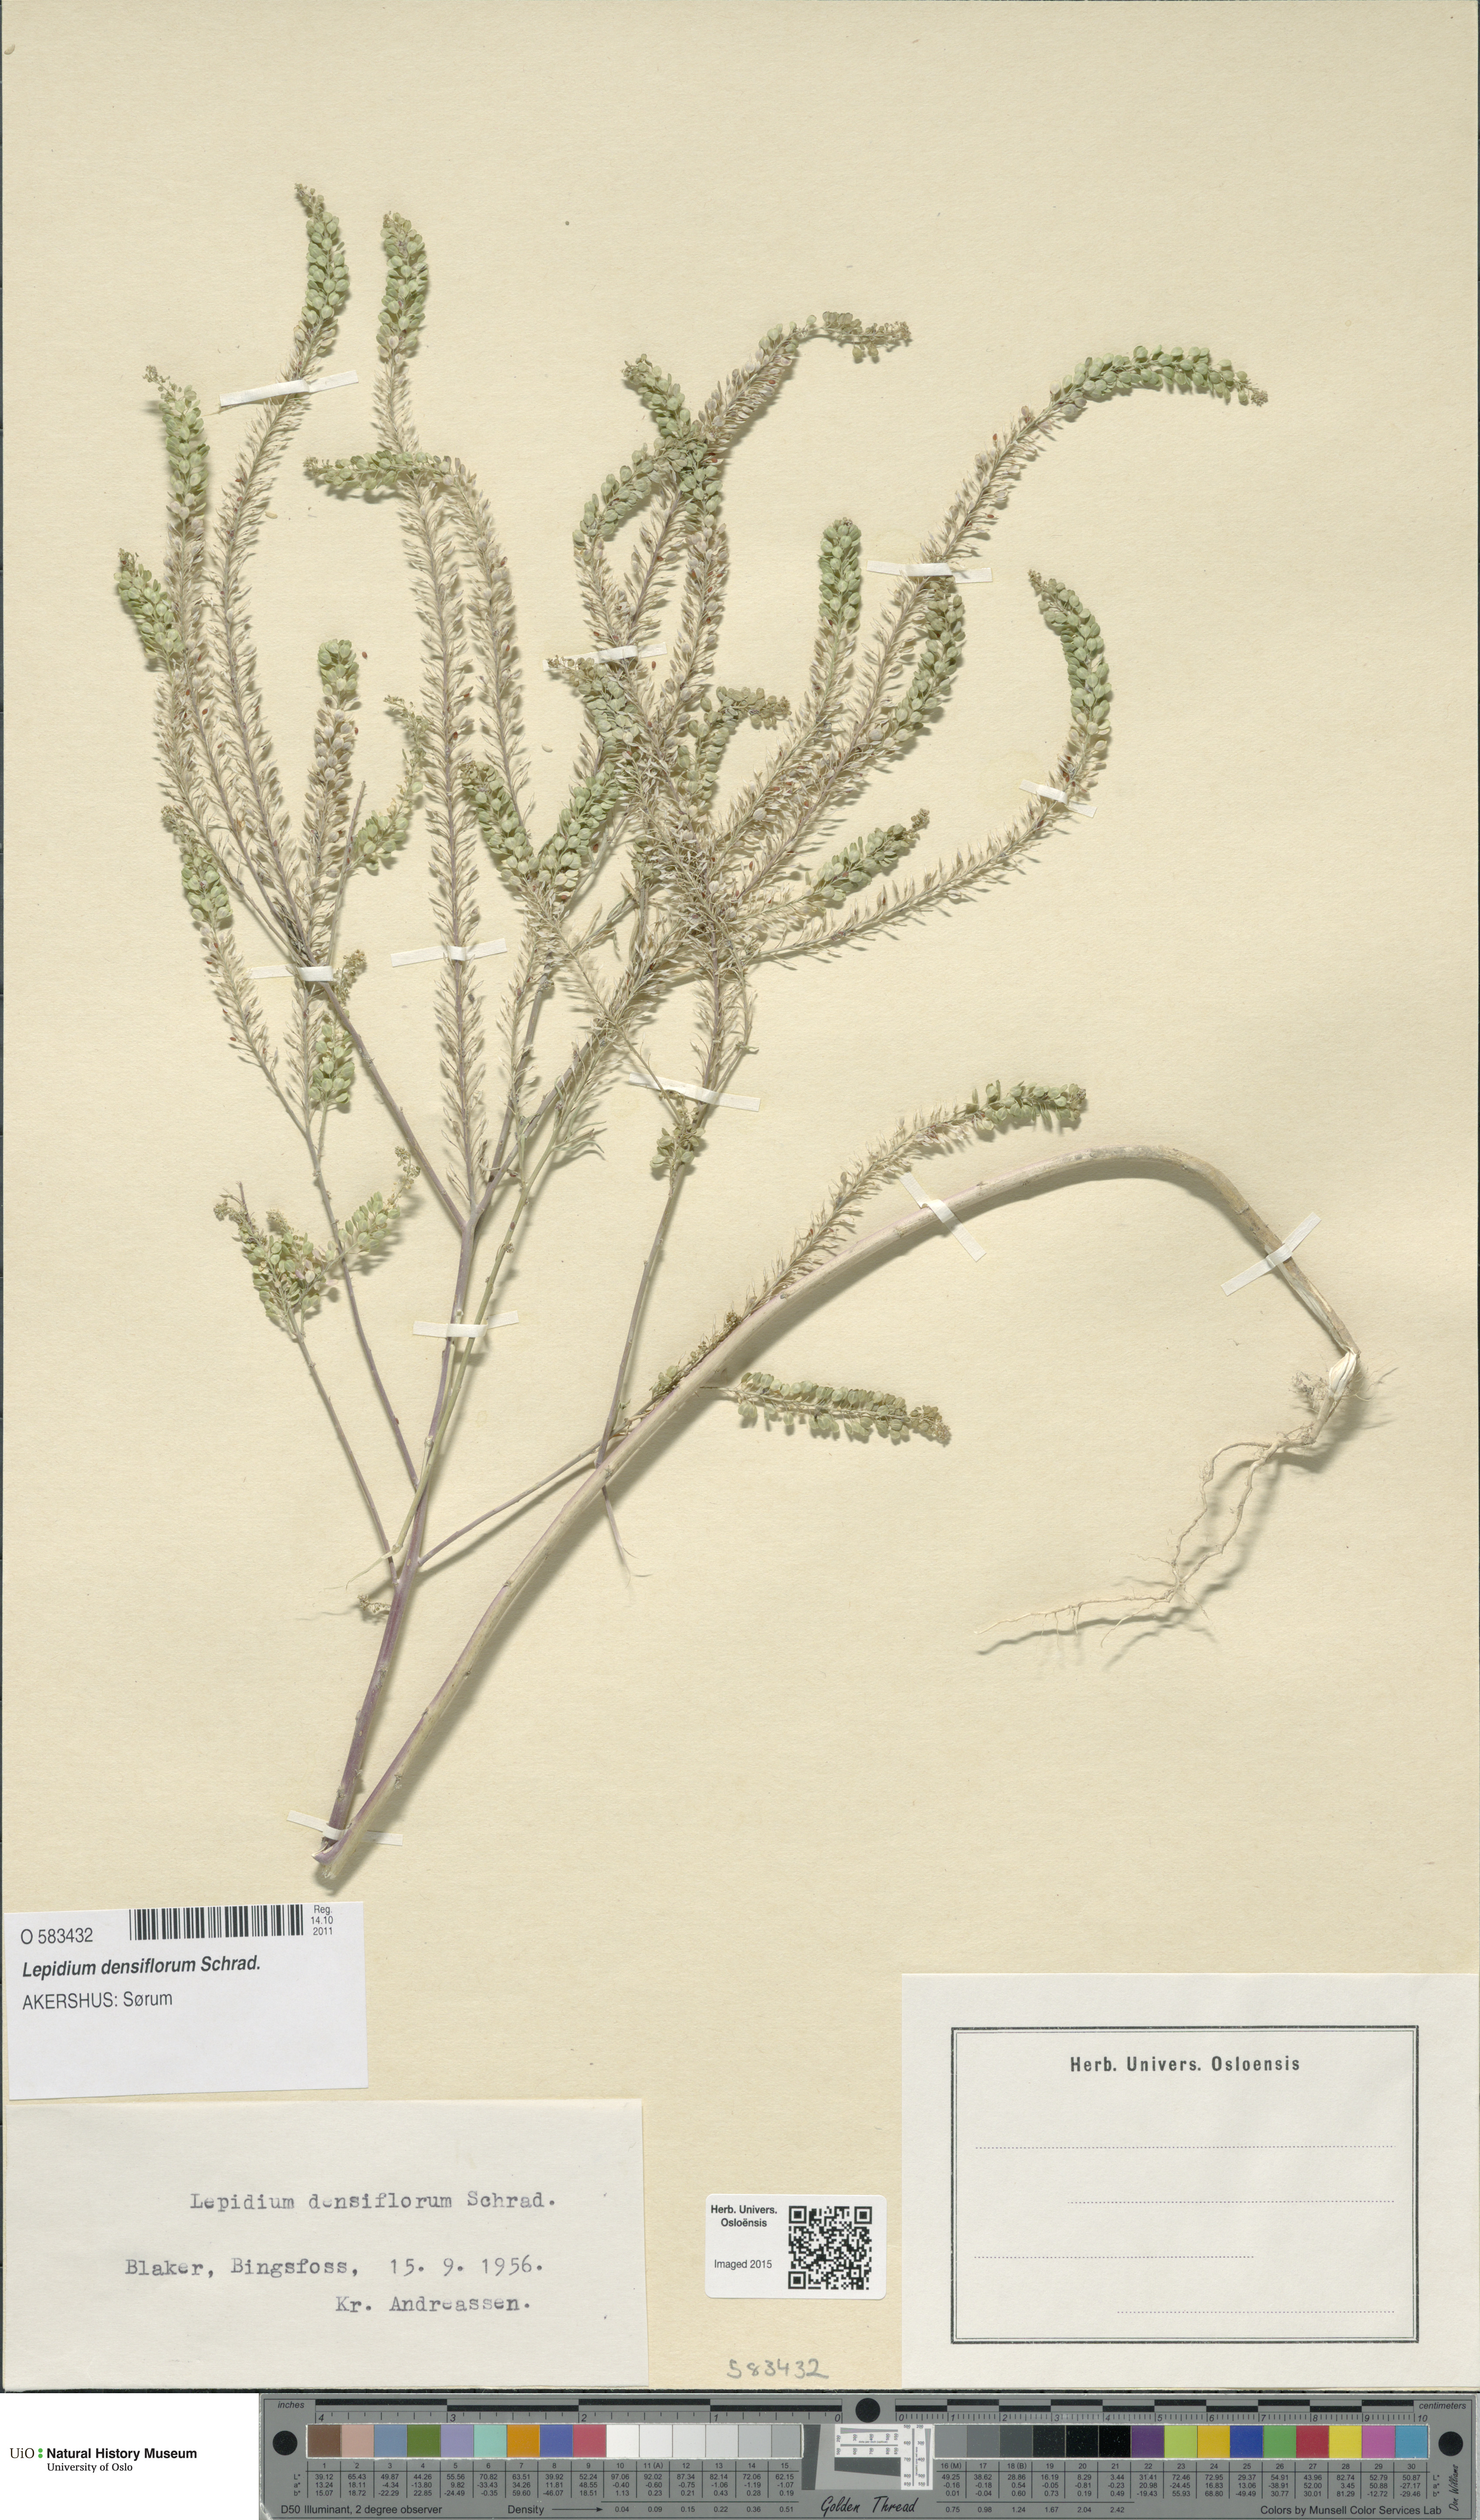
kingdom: Plantae
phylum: Tracheophyta
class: Magnoliopsida
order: Brassicales
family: Brassicaceae
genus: Lepidium
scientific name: Lepidium densiflorum
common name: Miner's pepperwort
